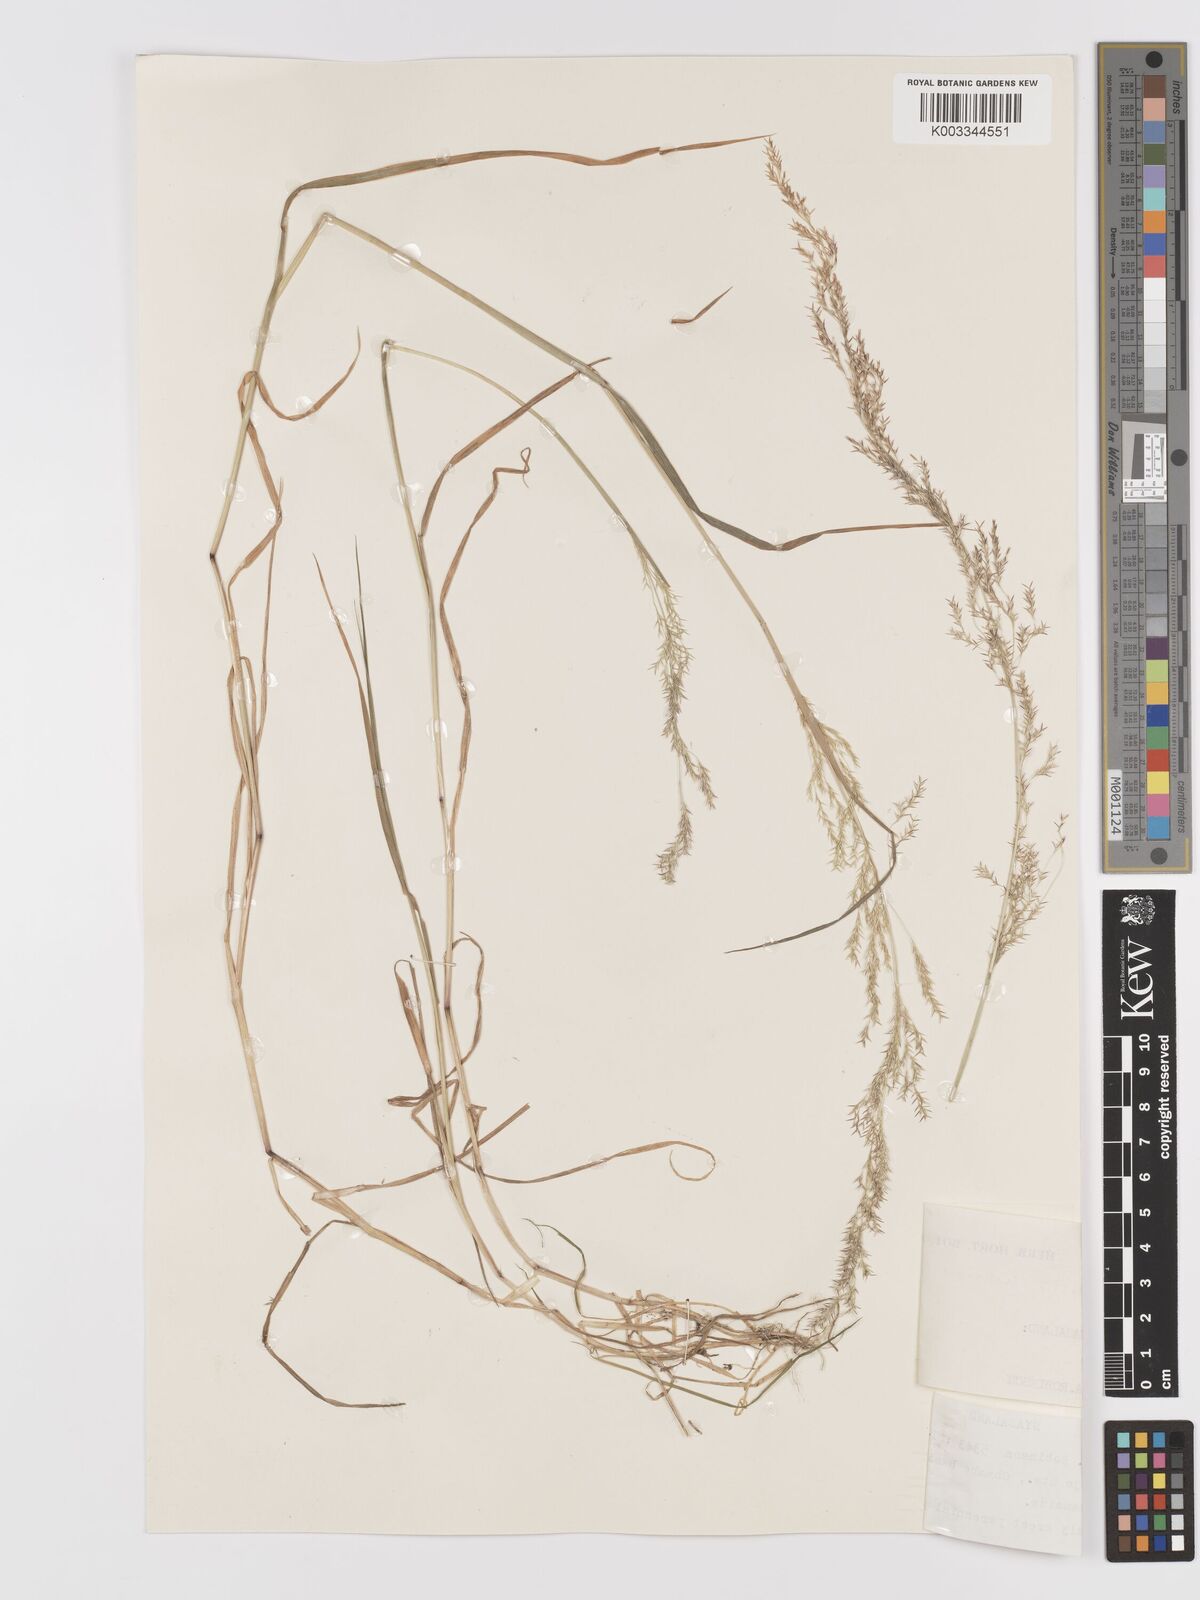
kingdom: Plantae
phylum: Tracheophyta
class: Liliopsida
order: Poales
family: Poaceae
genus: Lachnagrostis
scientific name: Lachnagrostis lachnantha
